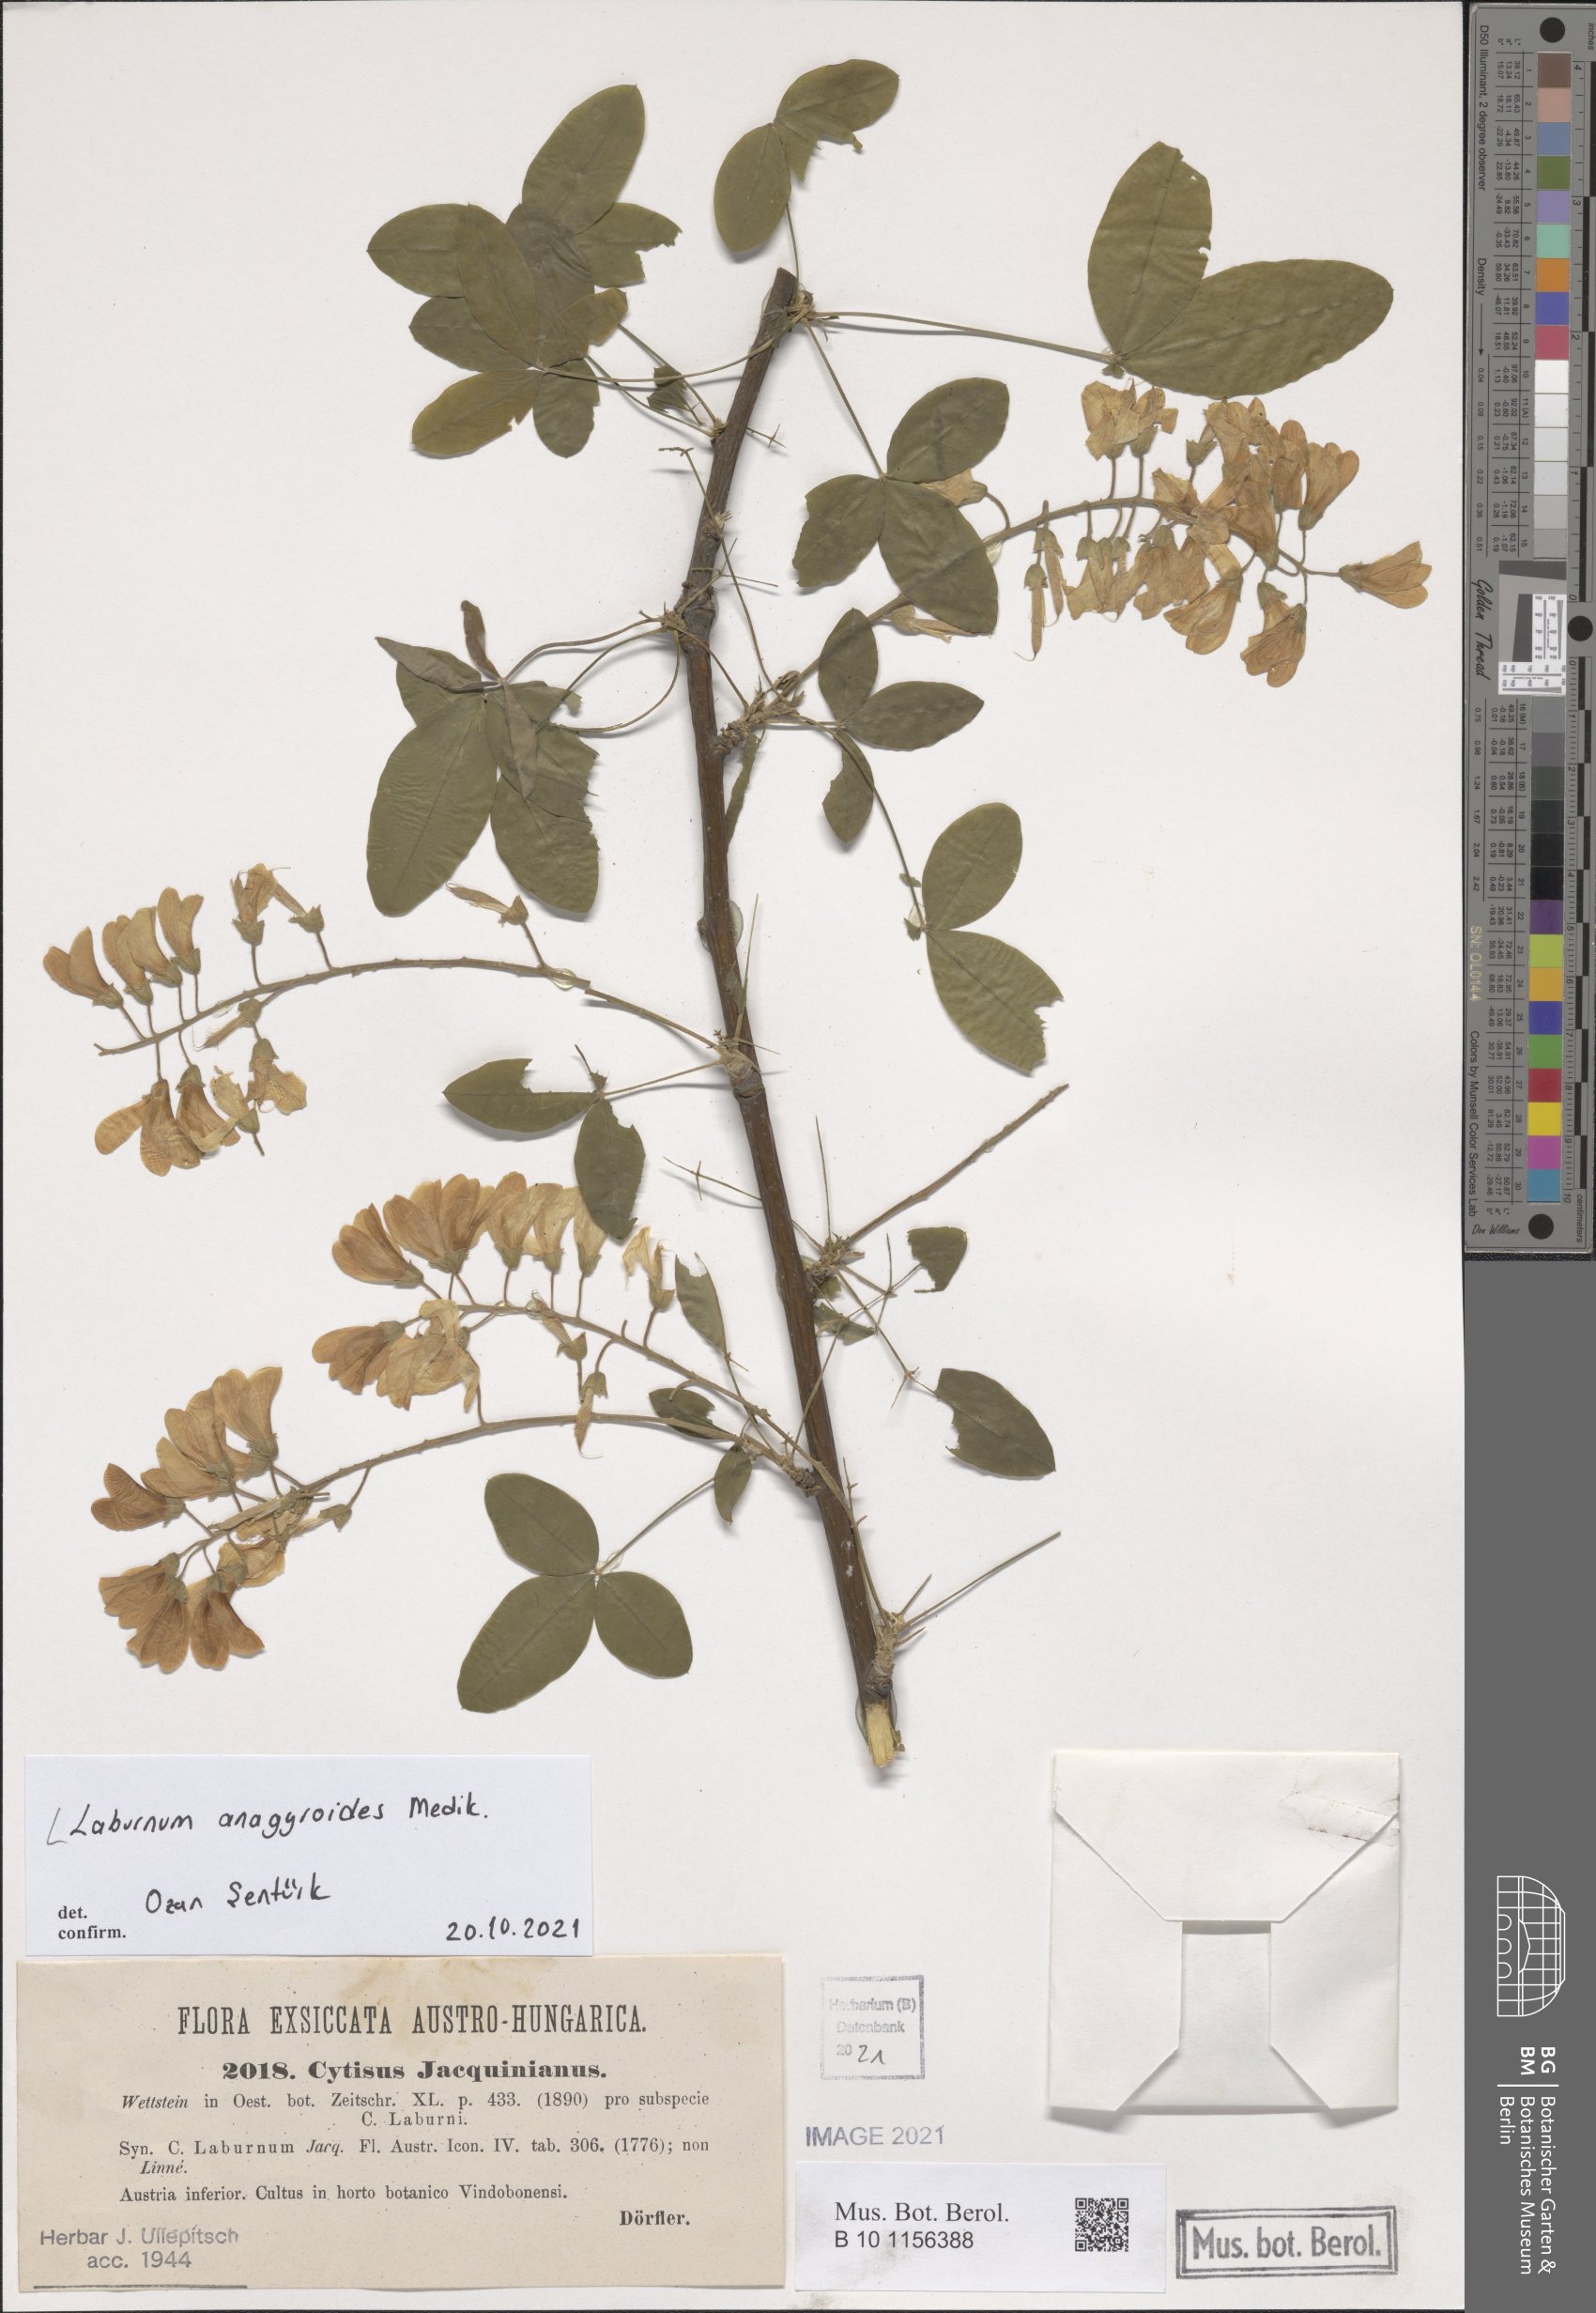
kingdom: Plantae
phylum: Tracheophyta
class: Magnoliopsida
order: Fabales
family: Fabaceae
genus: Laburnum
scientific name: Laburnum anagyroides
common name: Laburnum
